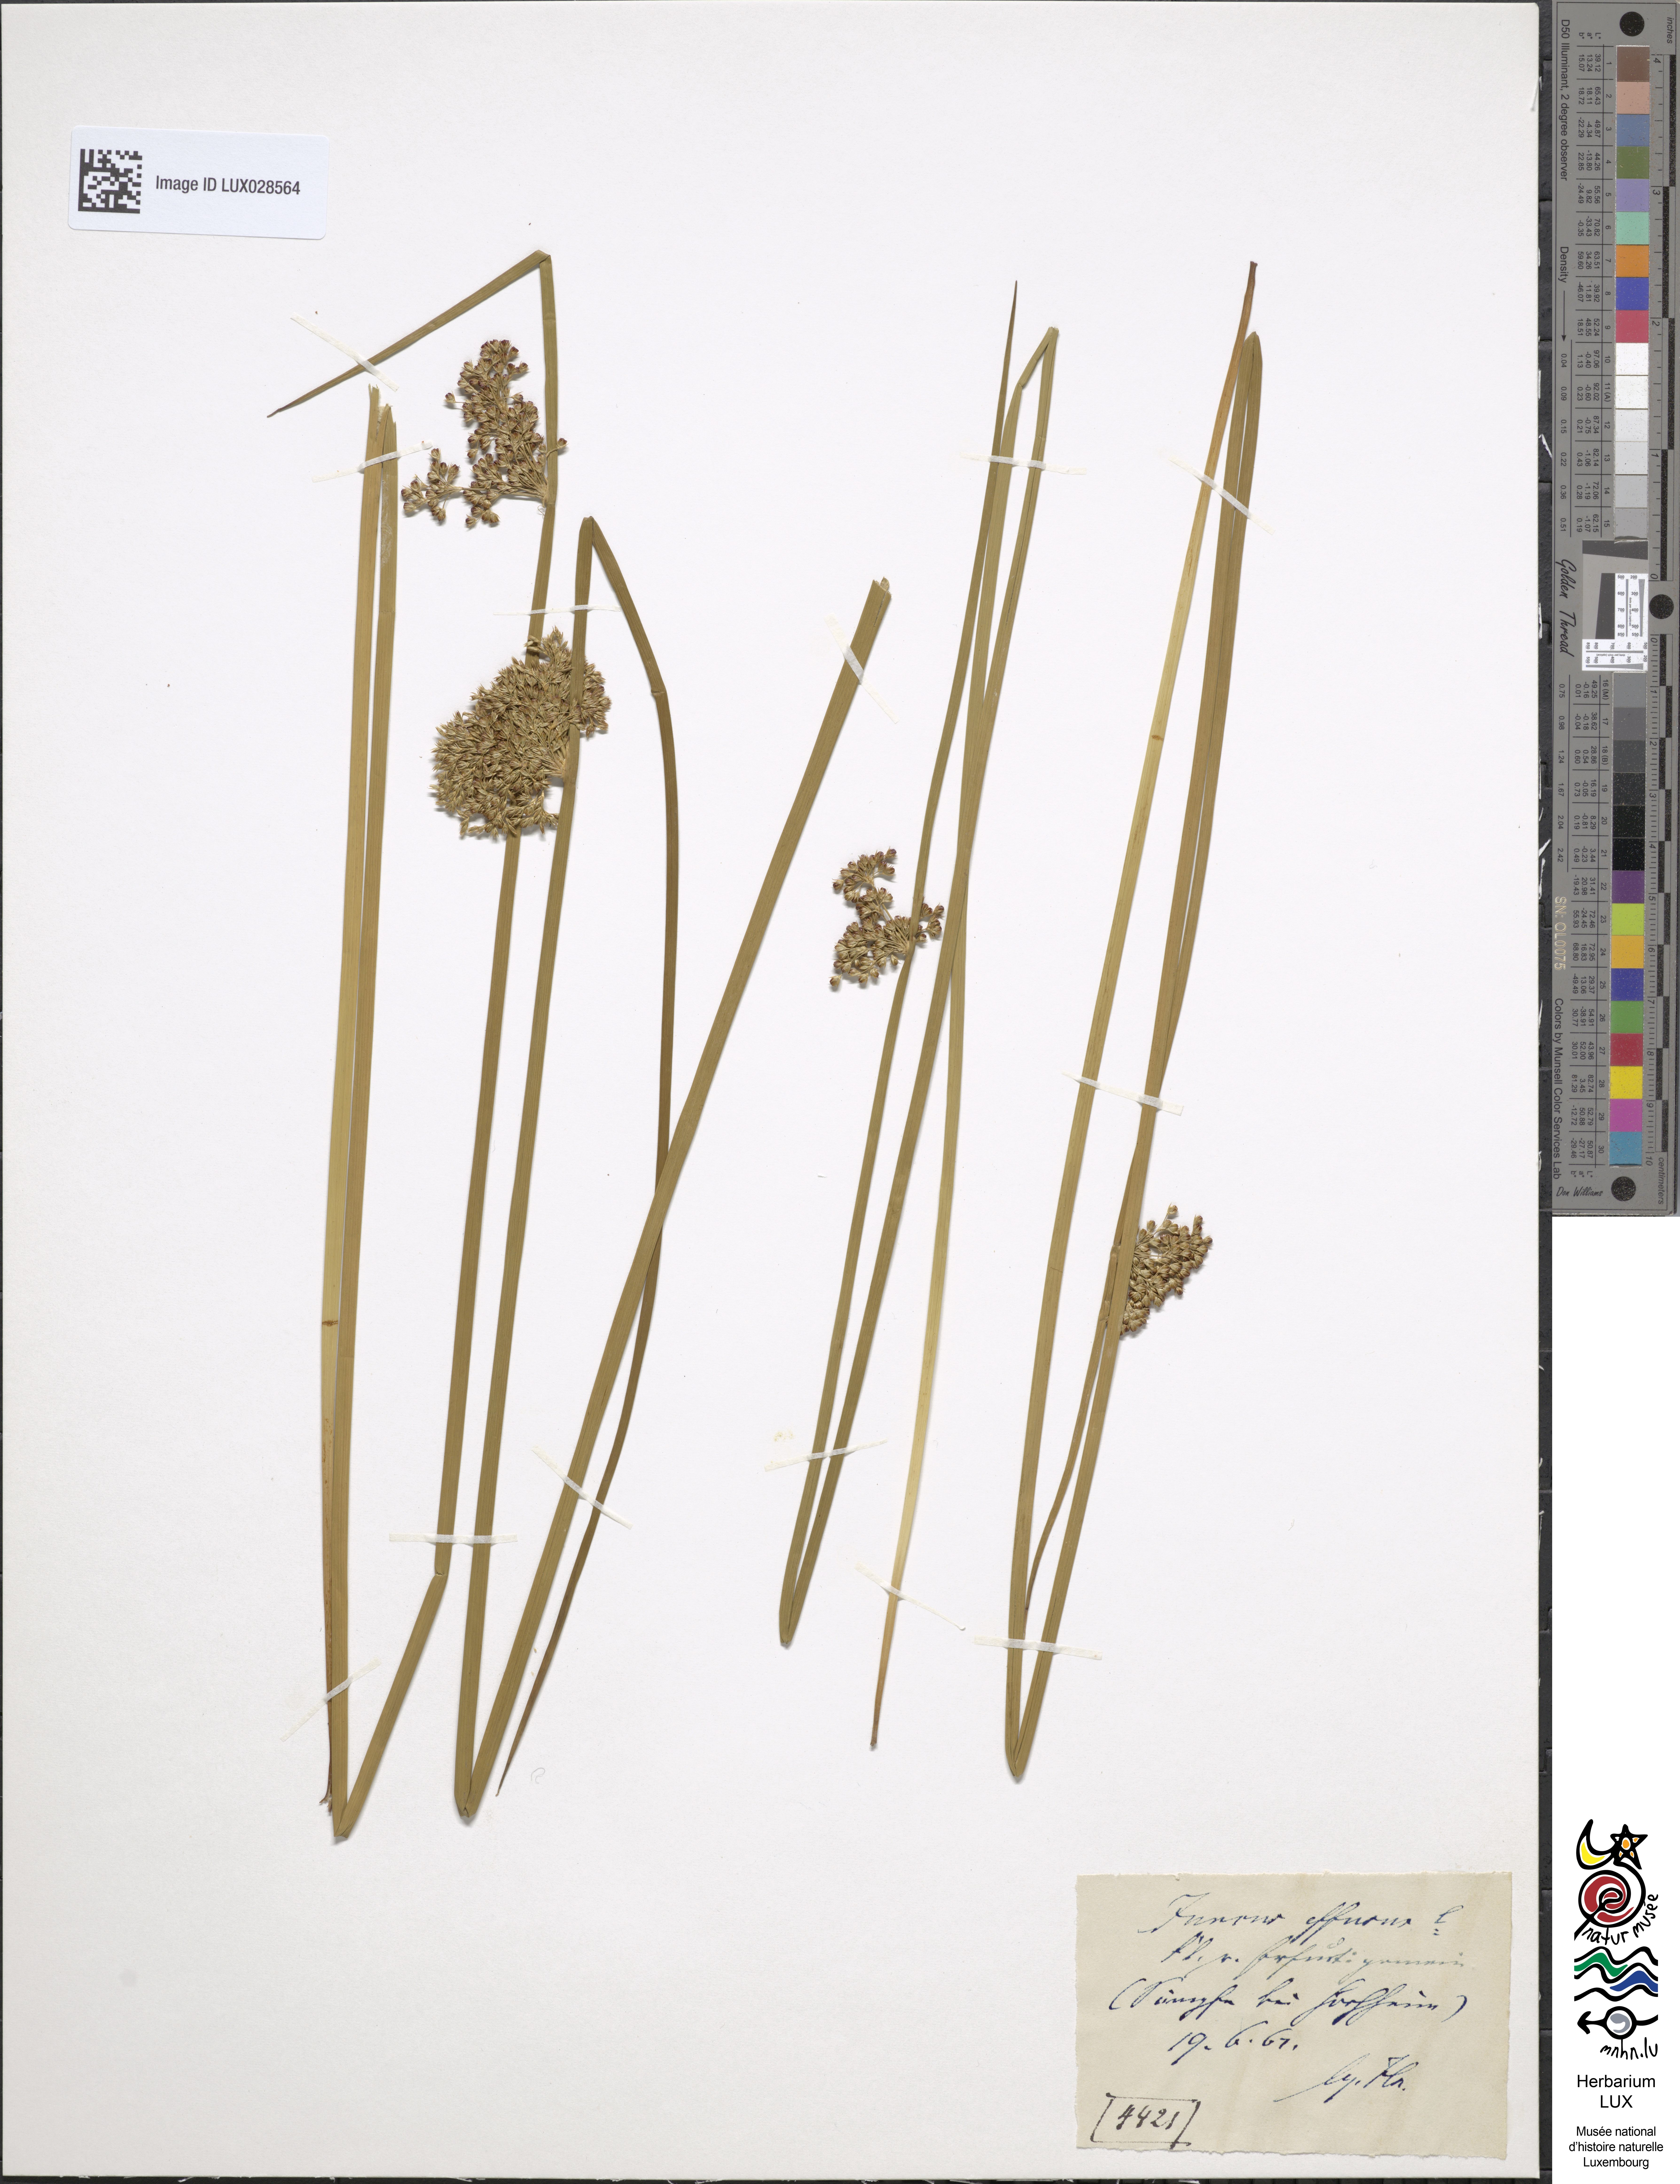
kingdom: Plantae
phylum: Tracheophyta
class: Liliopsida
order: Poales
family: Juncaceae
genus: Juncus
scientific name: Juncus effusus
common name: Soft rush
